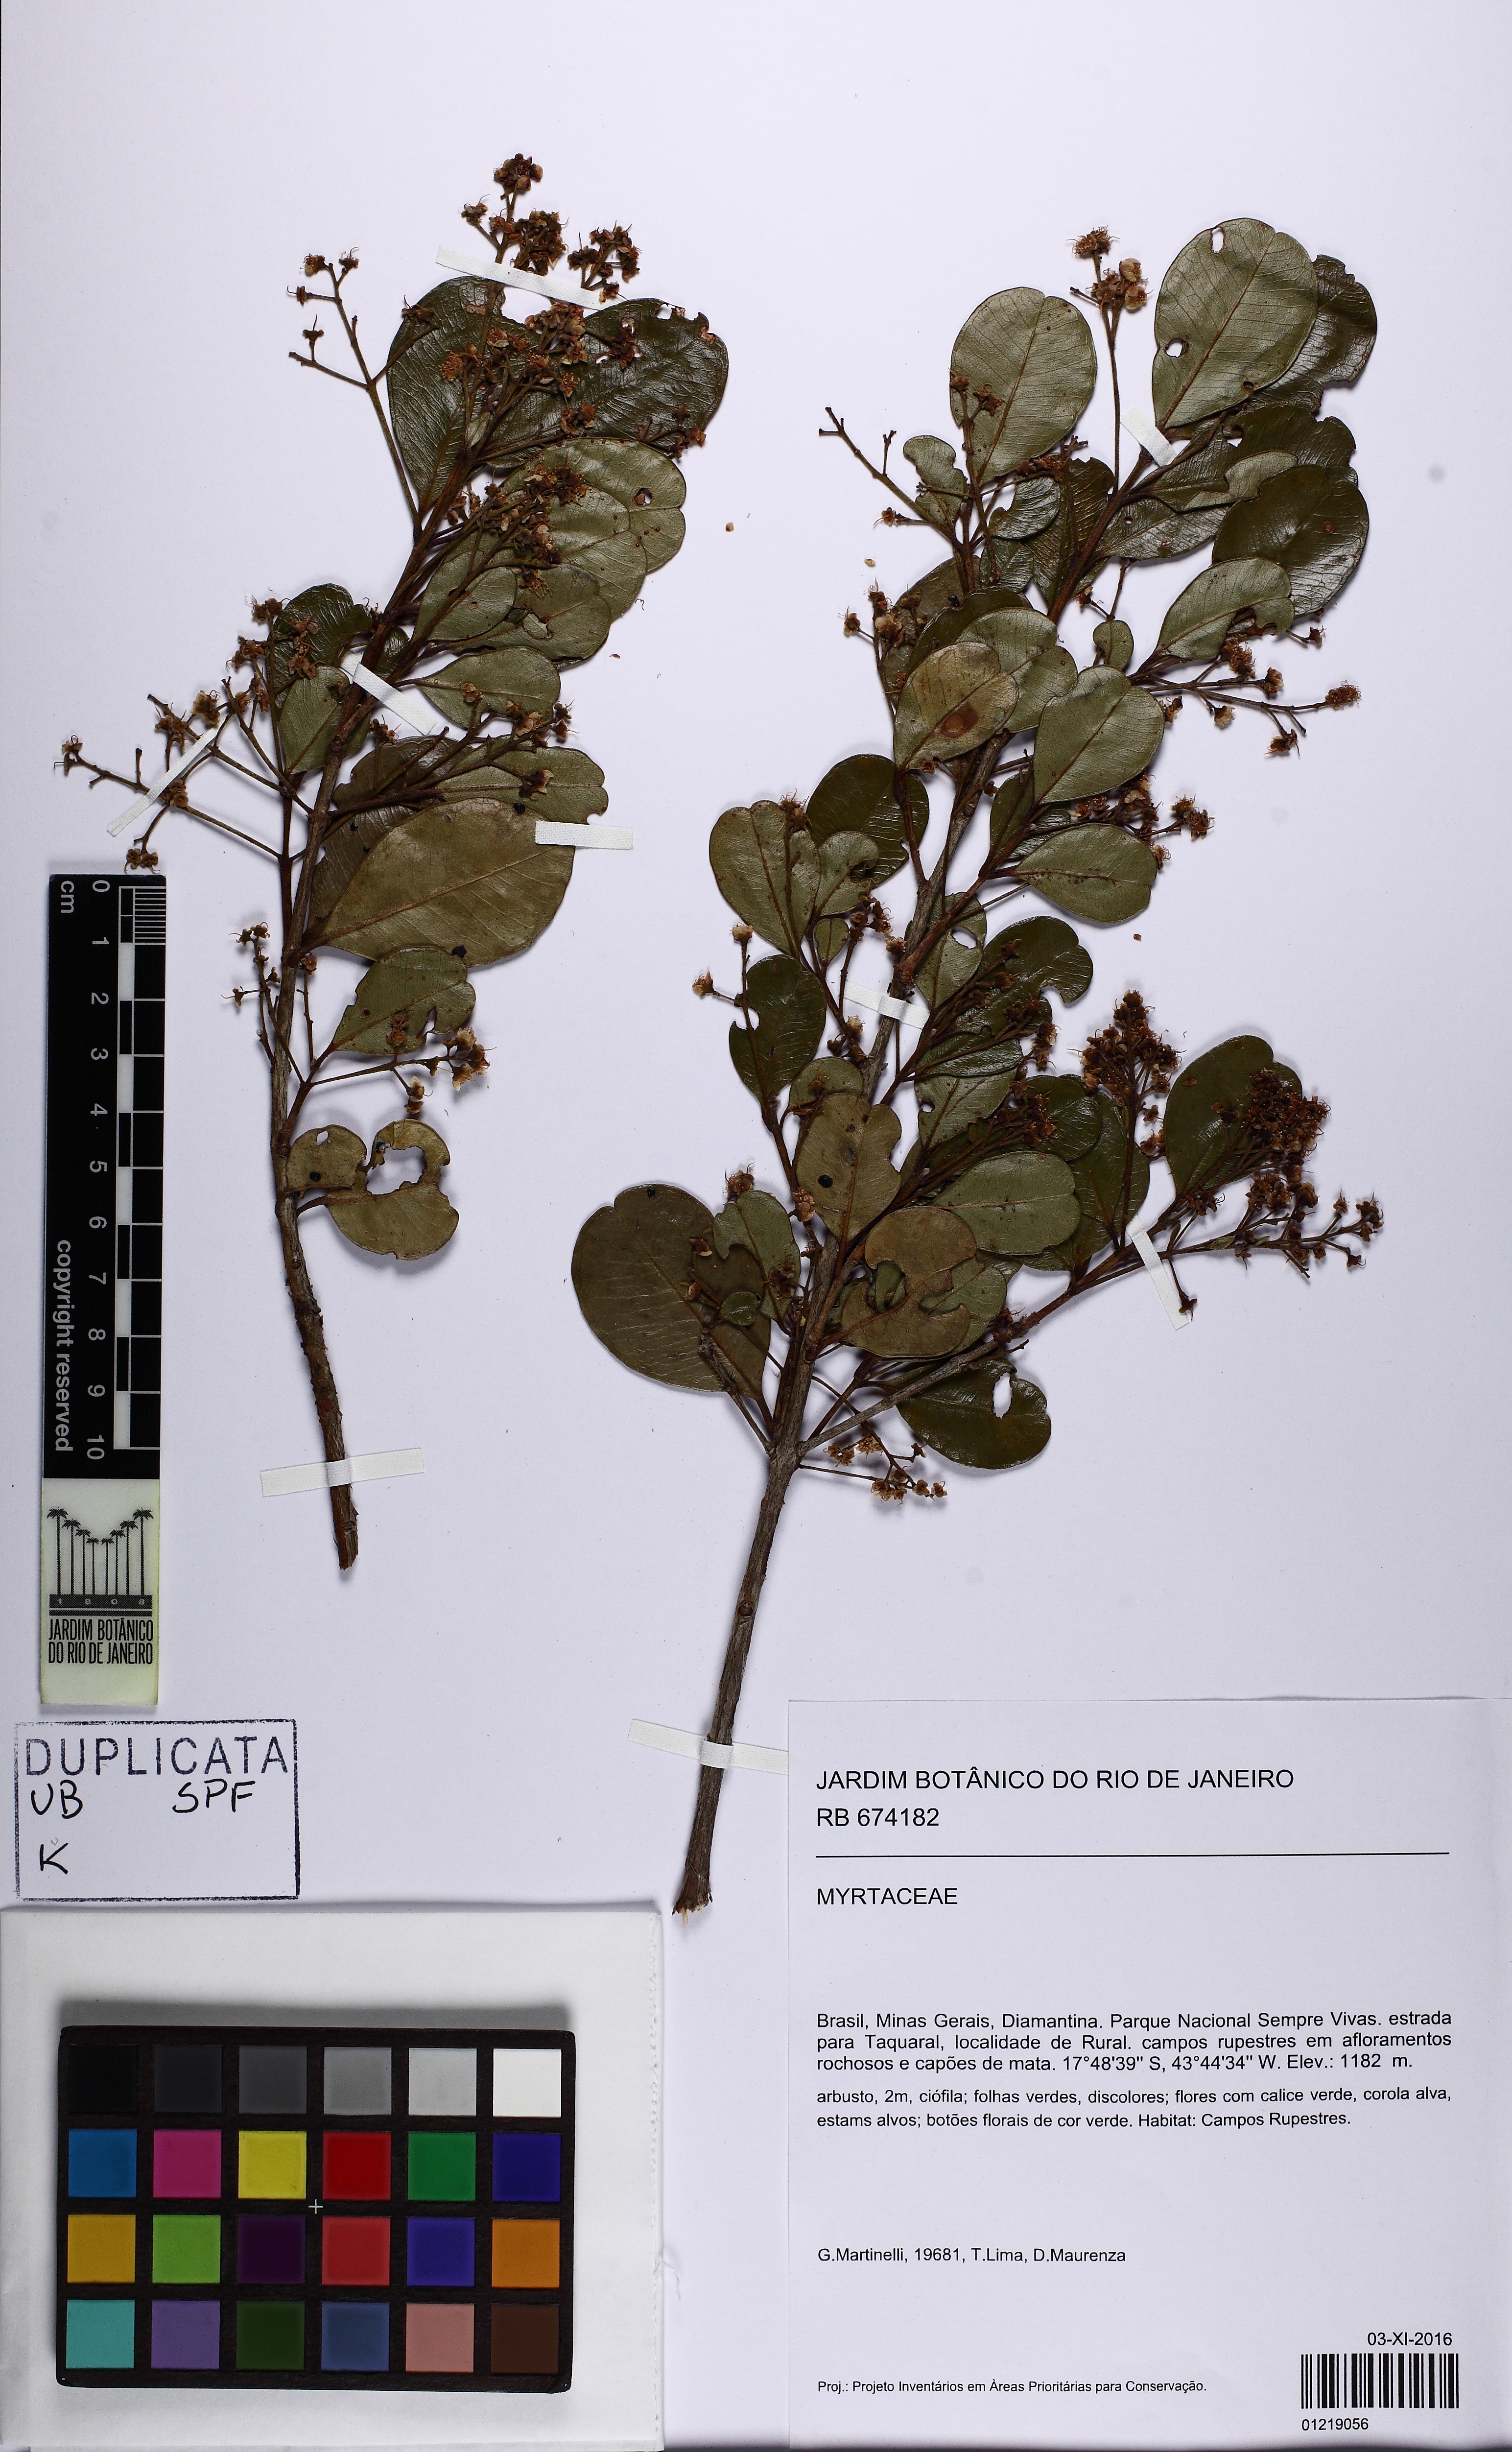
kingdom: Plantae
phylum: Tracheophyta
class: Magnoliopsida
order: Myrtales
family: Myrtaceae
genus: Myrcia
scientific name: Myrcia obovata
